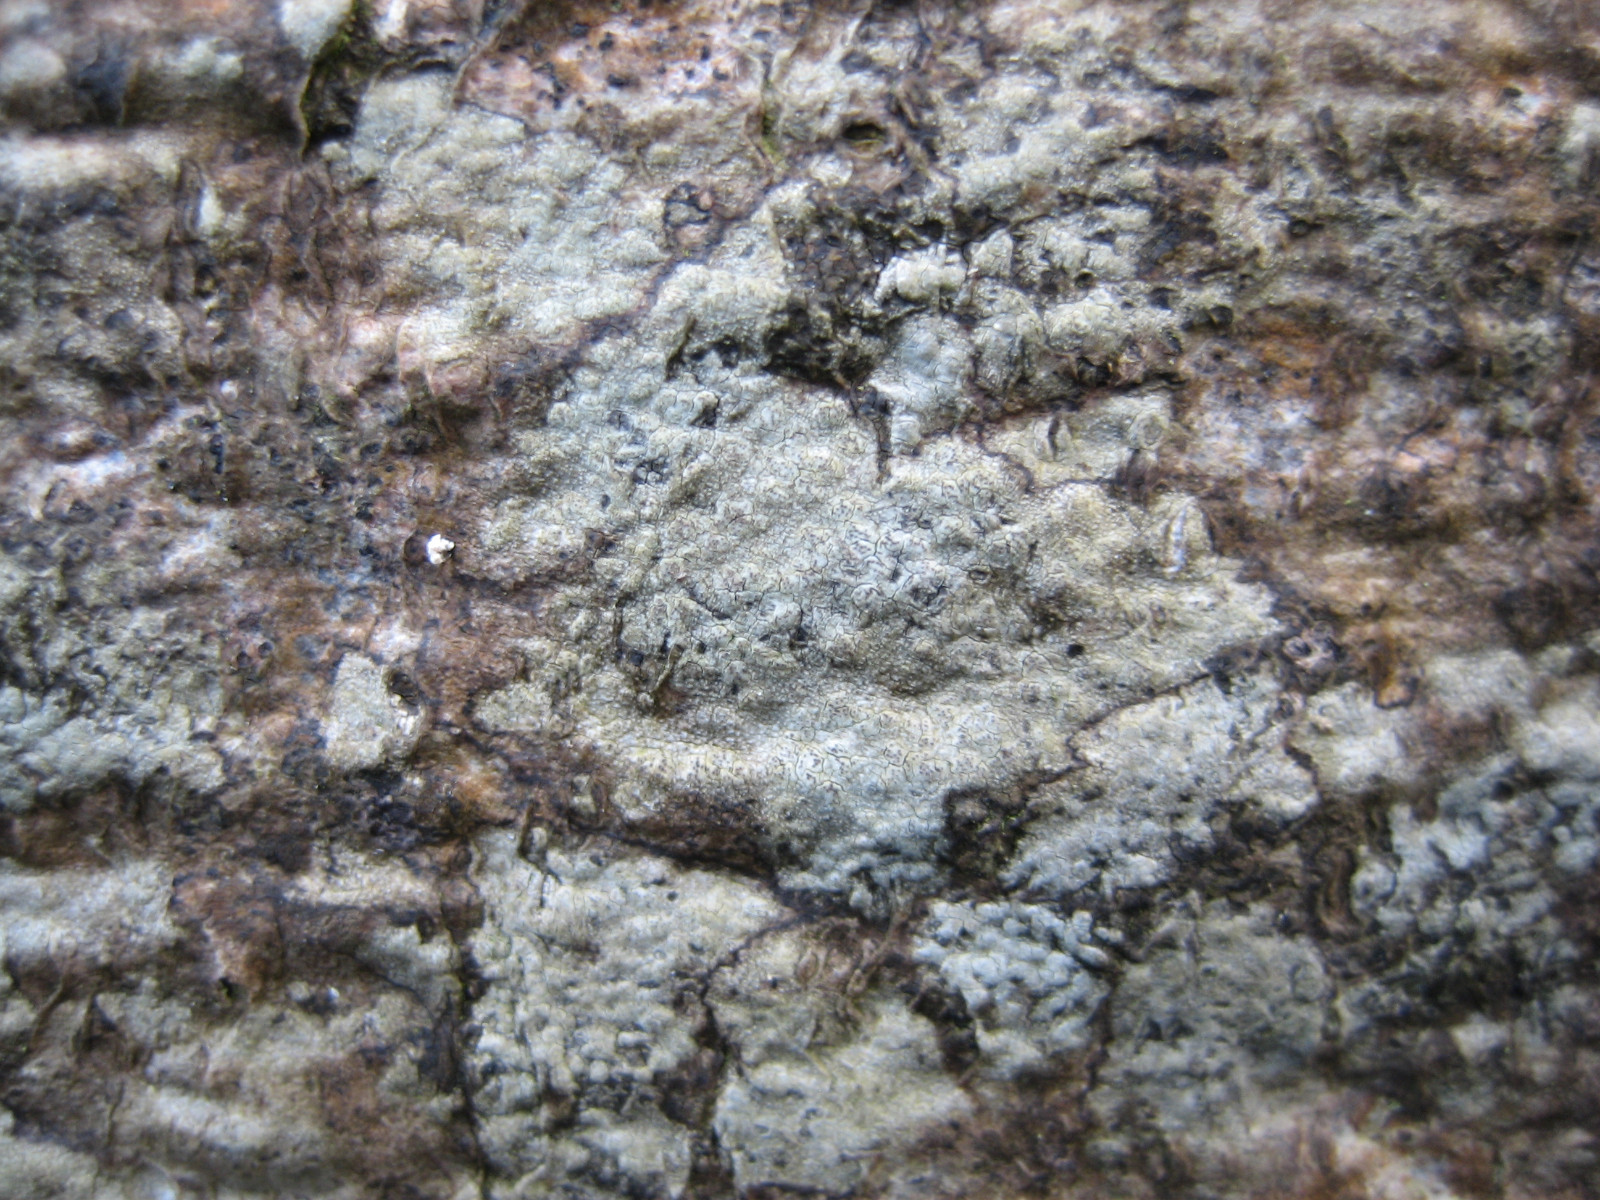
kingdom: Fungi
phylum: Ascomycota
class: Arthoniomycetes
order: Arthoniales
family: Roccellaceae
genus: Enterographa
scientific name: Enterographa crassa
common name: tyk prægelav
